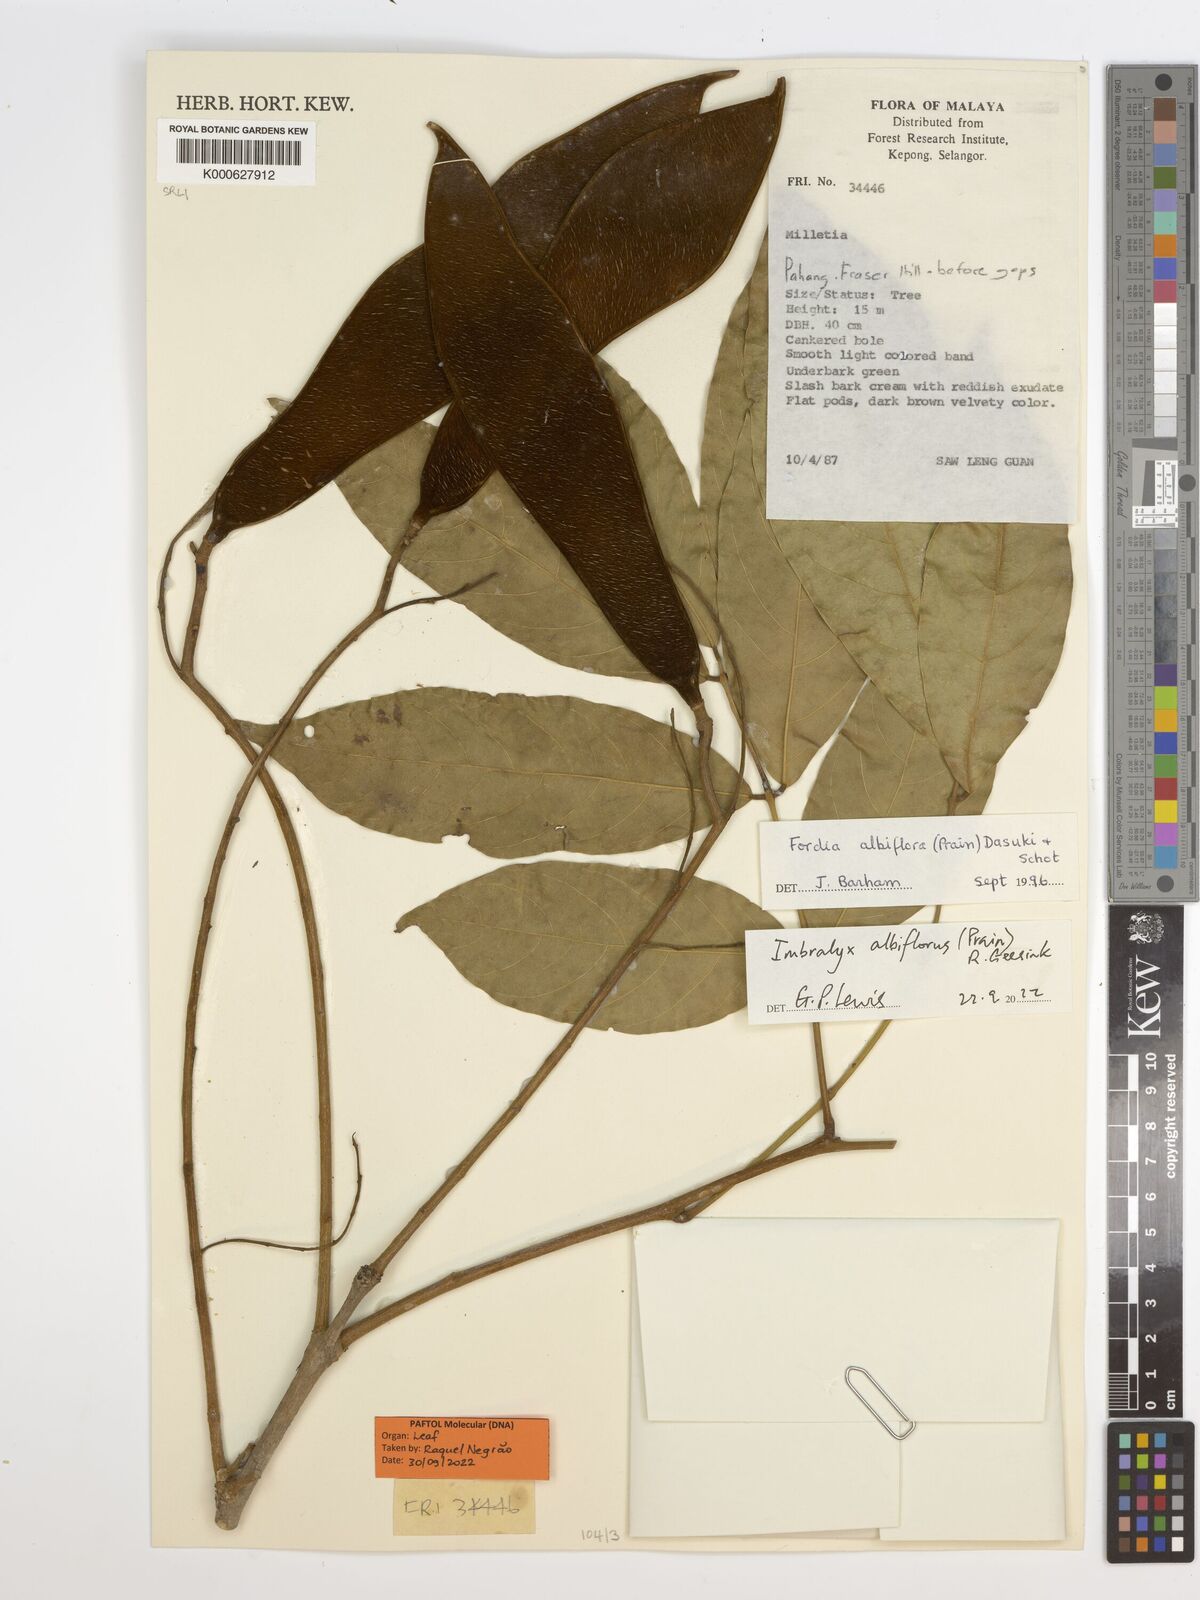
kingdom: Plantae
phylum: Tracheophyta
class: Magnoliopsida
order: Fabales
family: Fabaceae
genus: Imbralyx
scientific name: Imbralyx albiflorus
